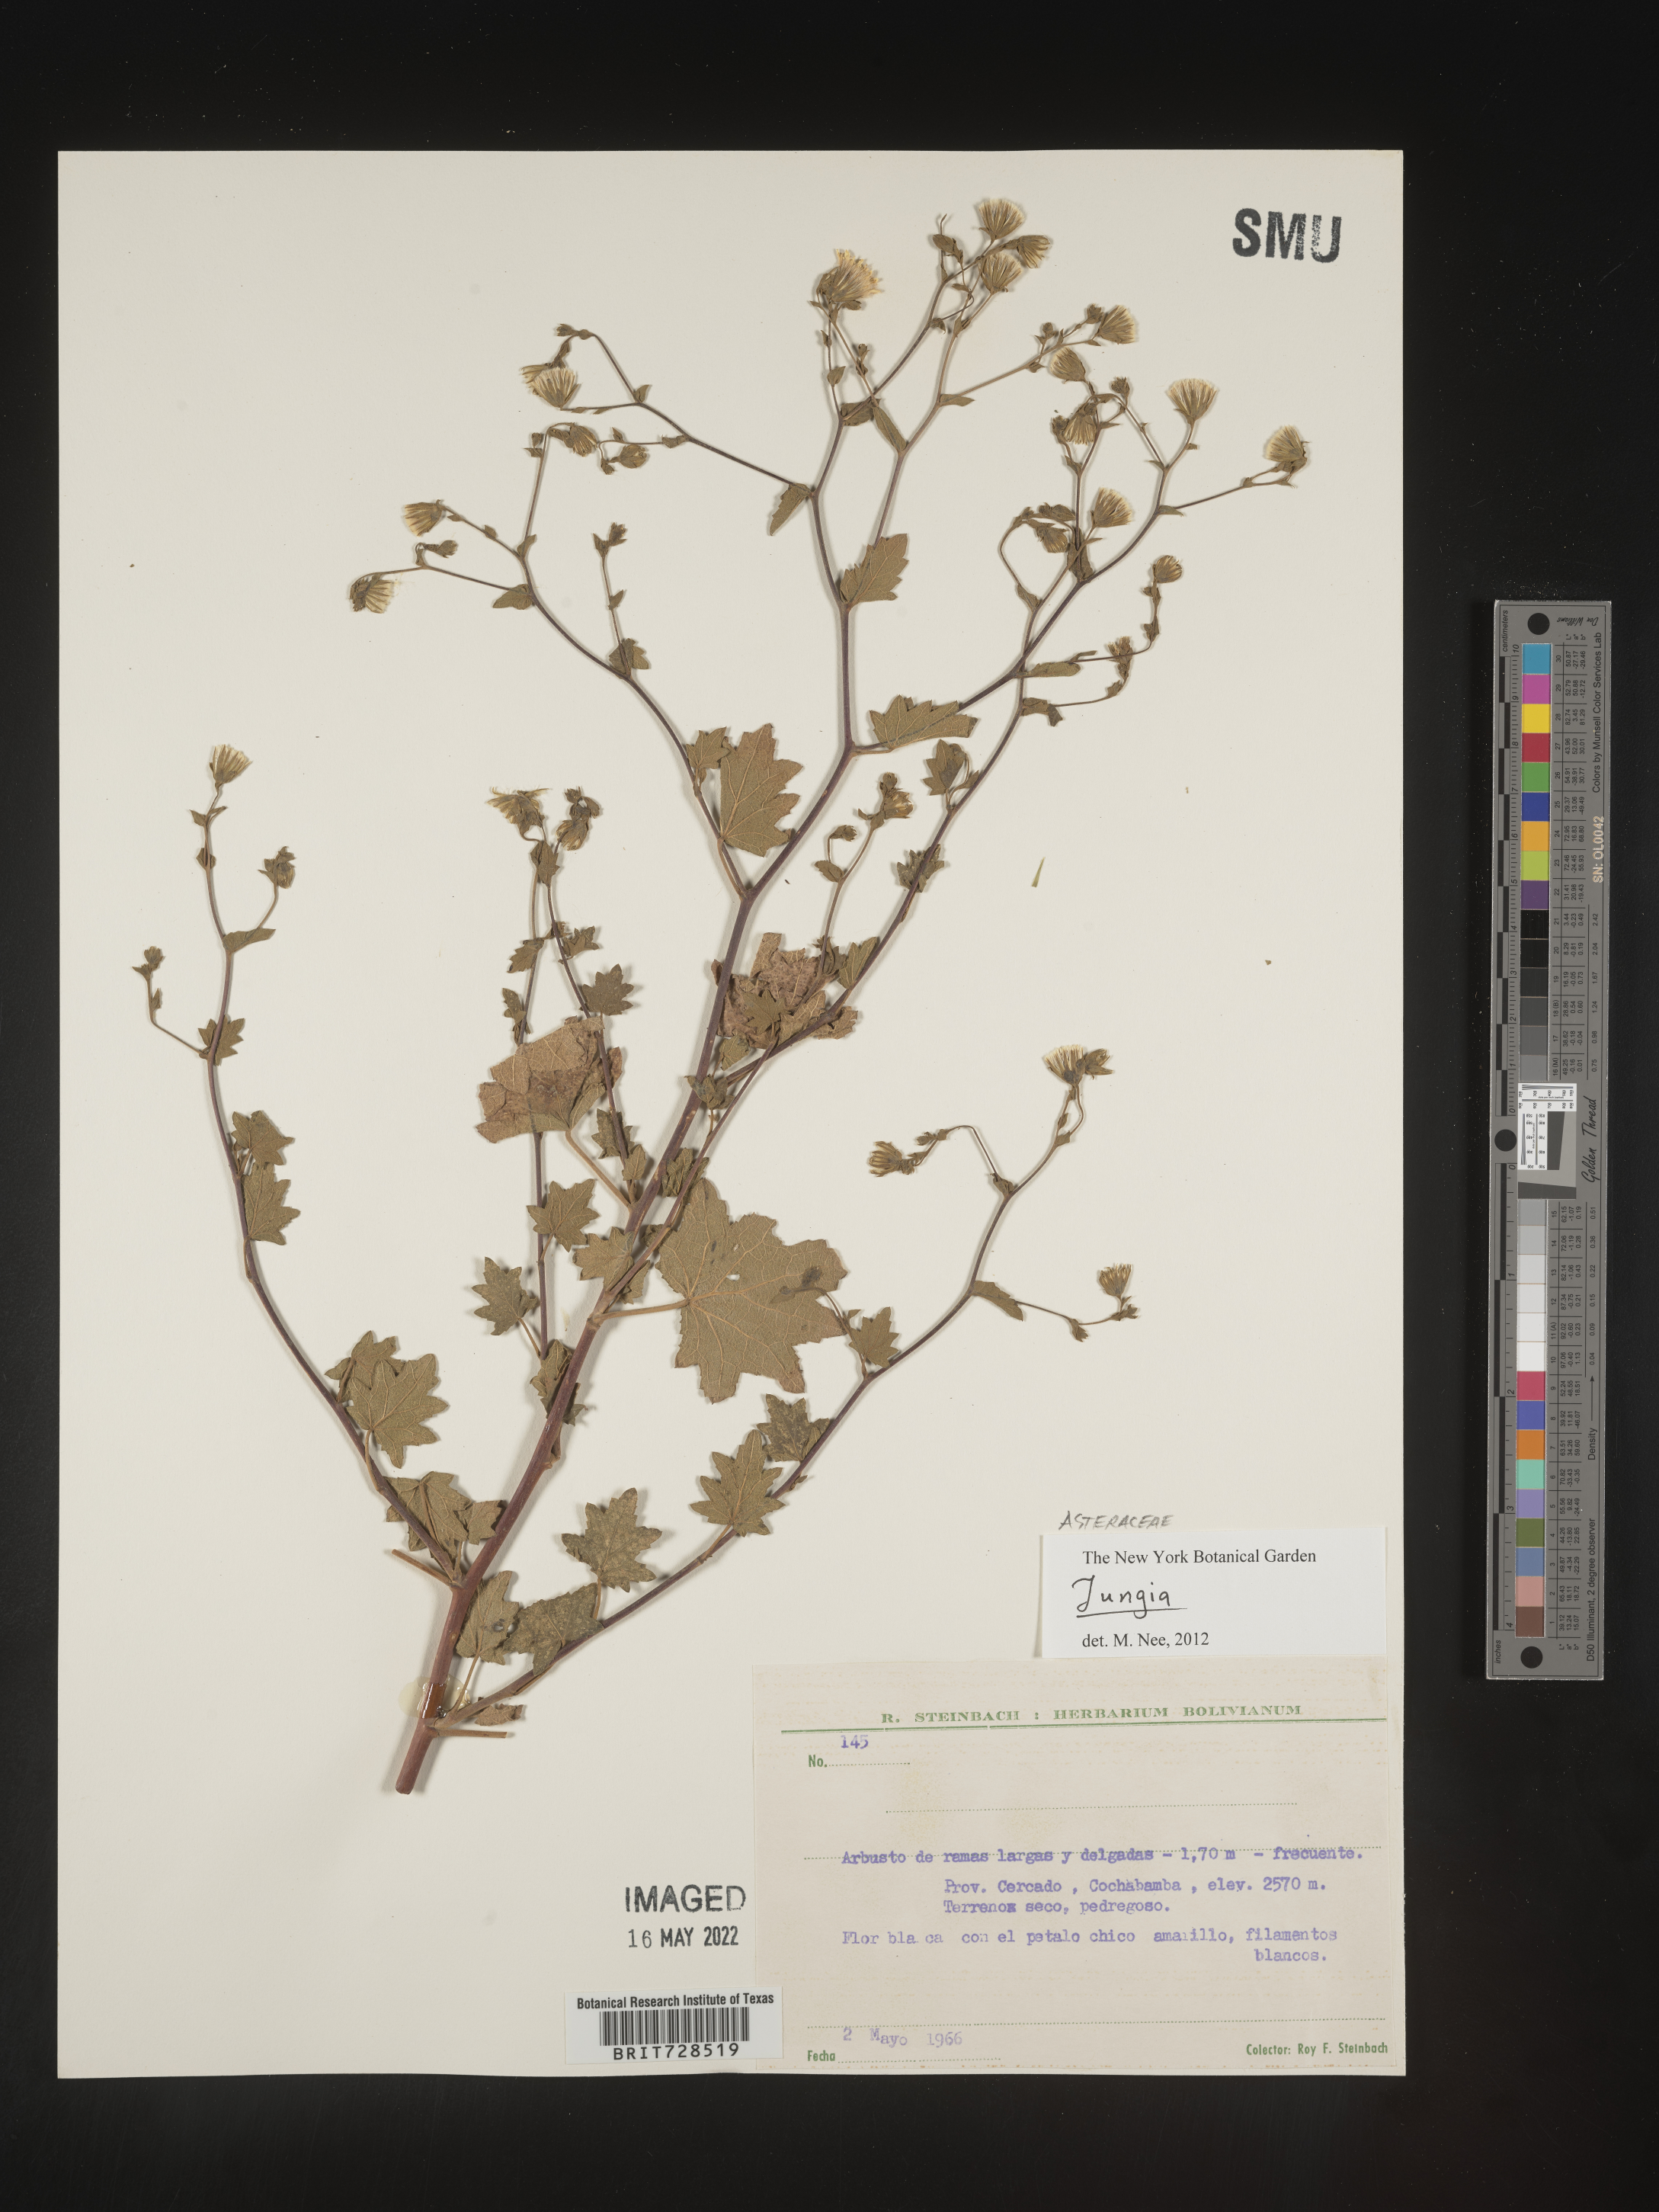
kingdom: Plantae
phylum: Tracheophyta
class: Magnoliopsida
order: Asterales
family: Asteraceae
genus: Jungia
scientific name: Jungia
